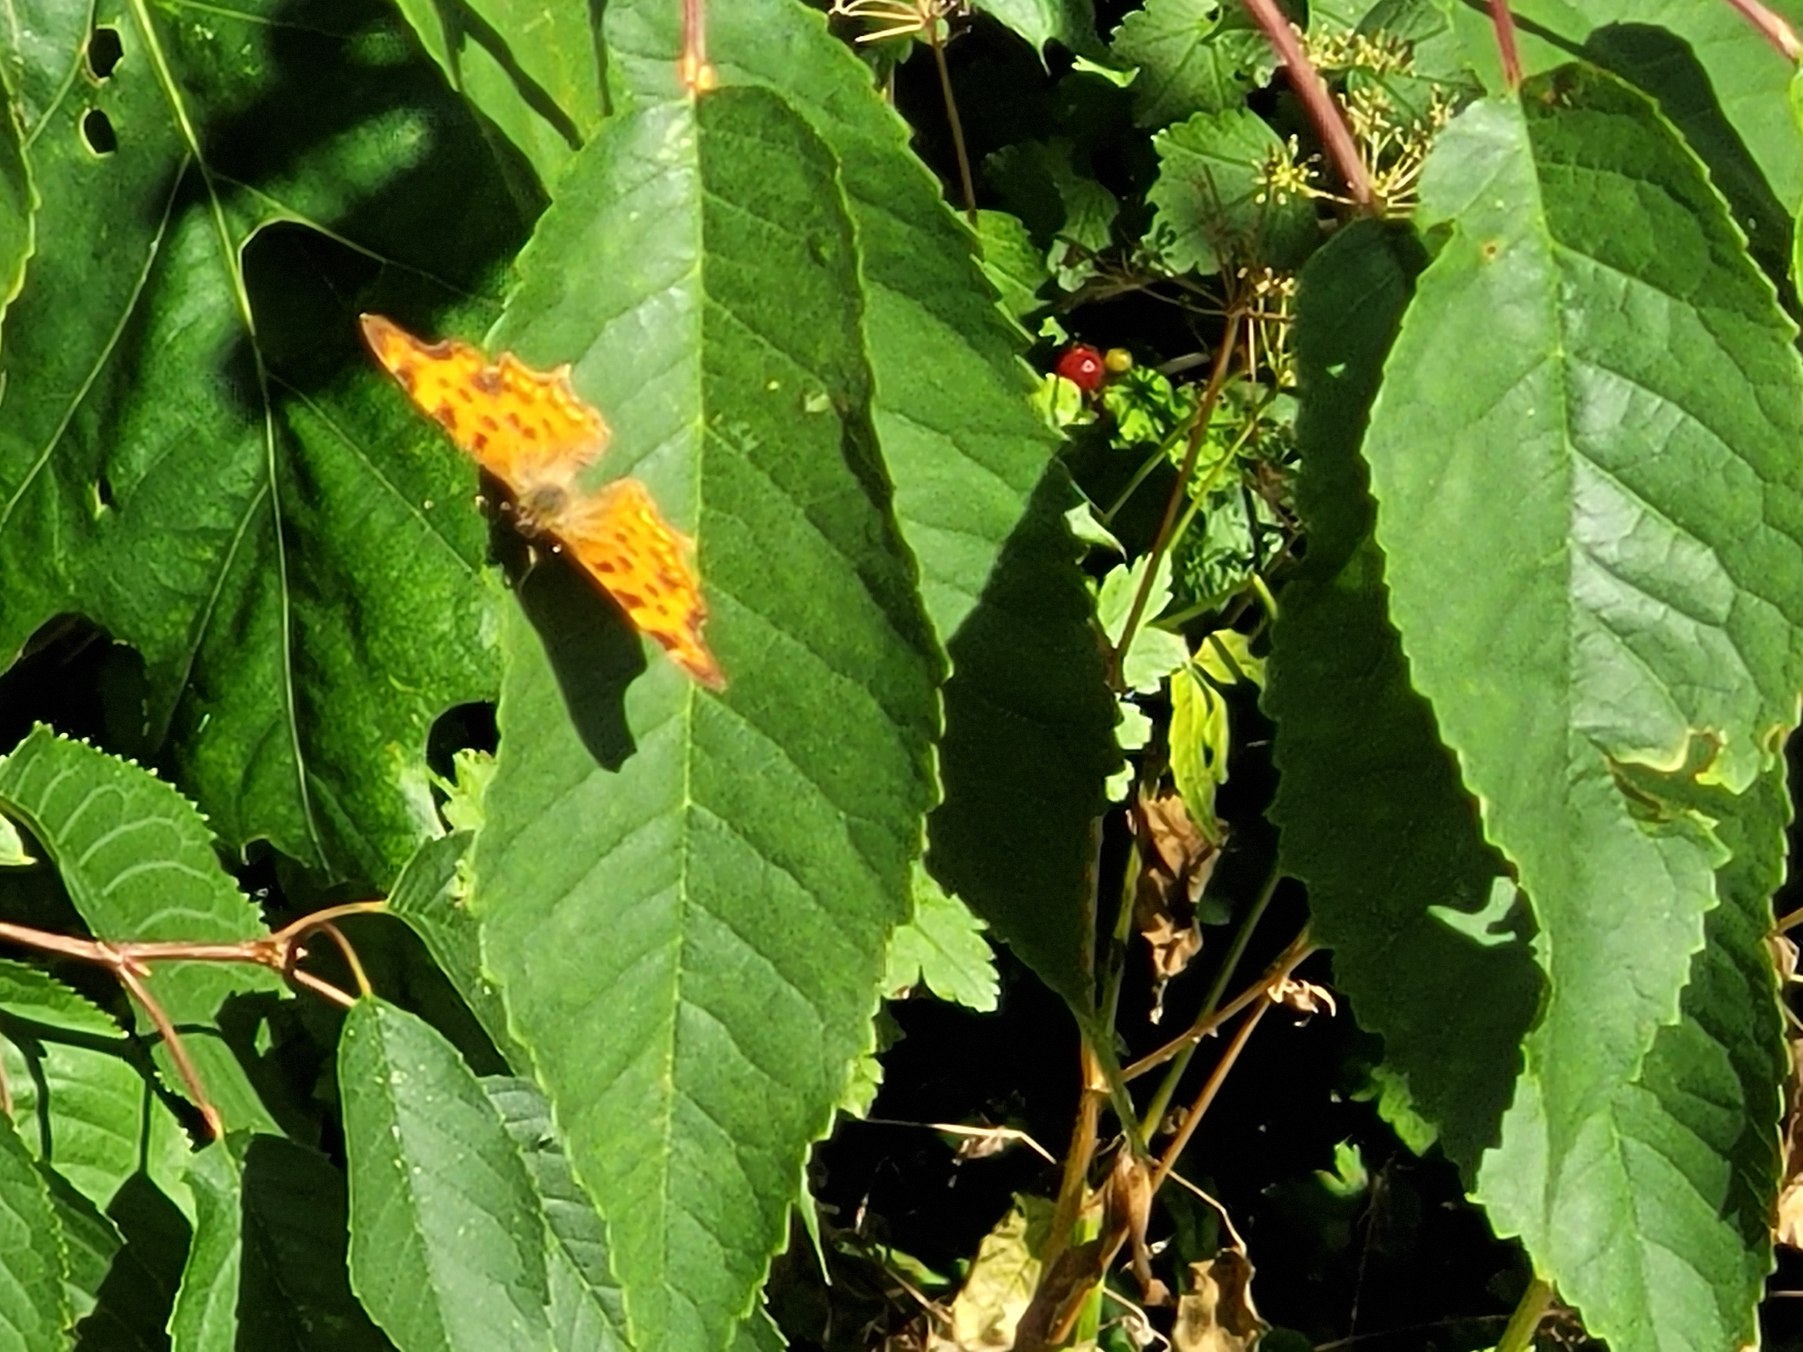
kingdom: Animalia
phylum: Arthropoda
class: Insecta
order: Lepidoptera
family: Nymphalidae
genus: Polygonia
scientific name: Polygonia c-album
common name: Det hvide C
